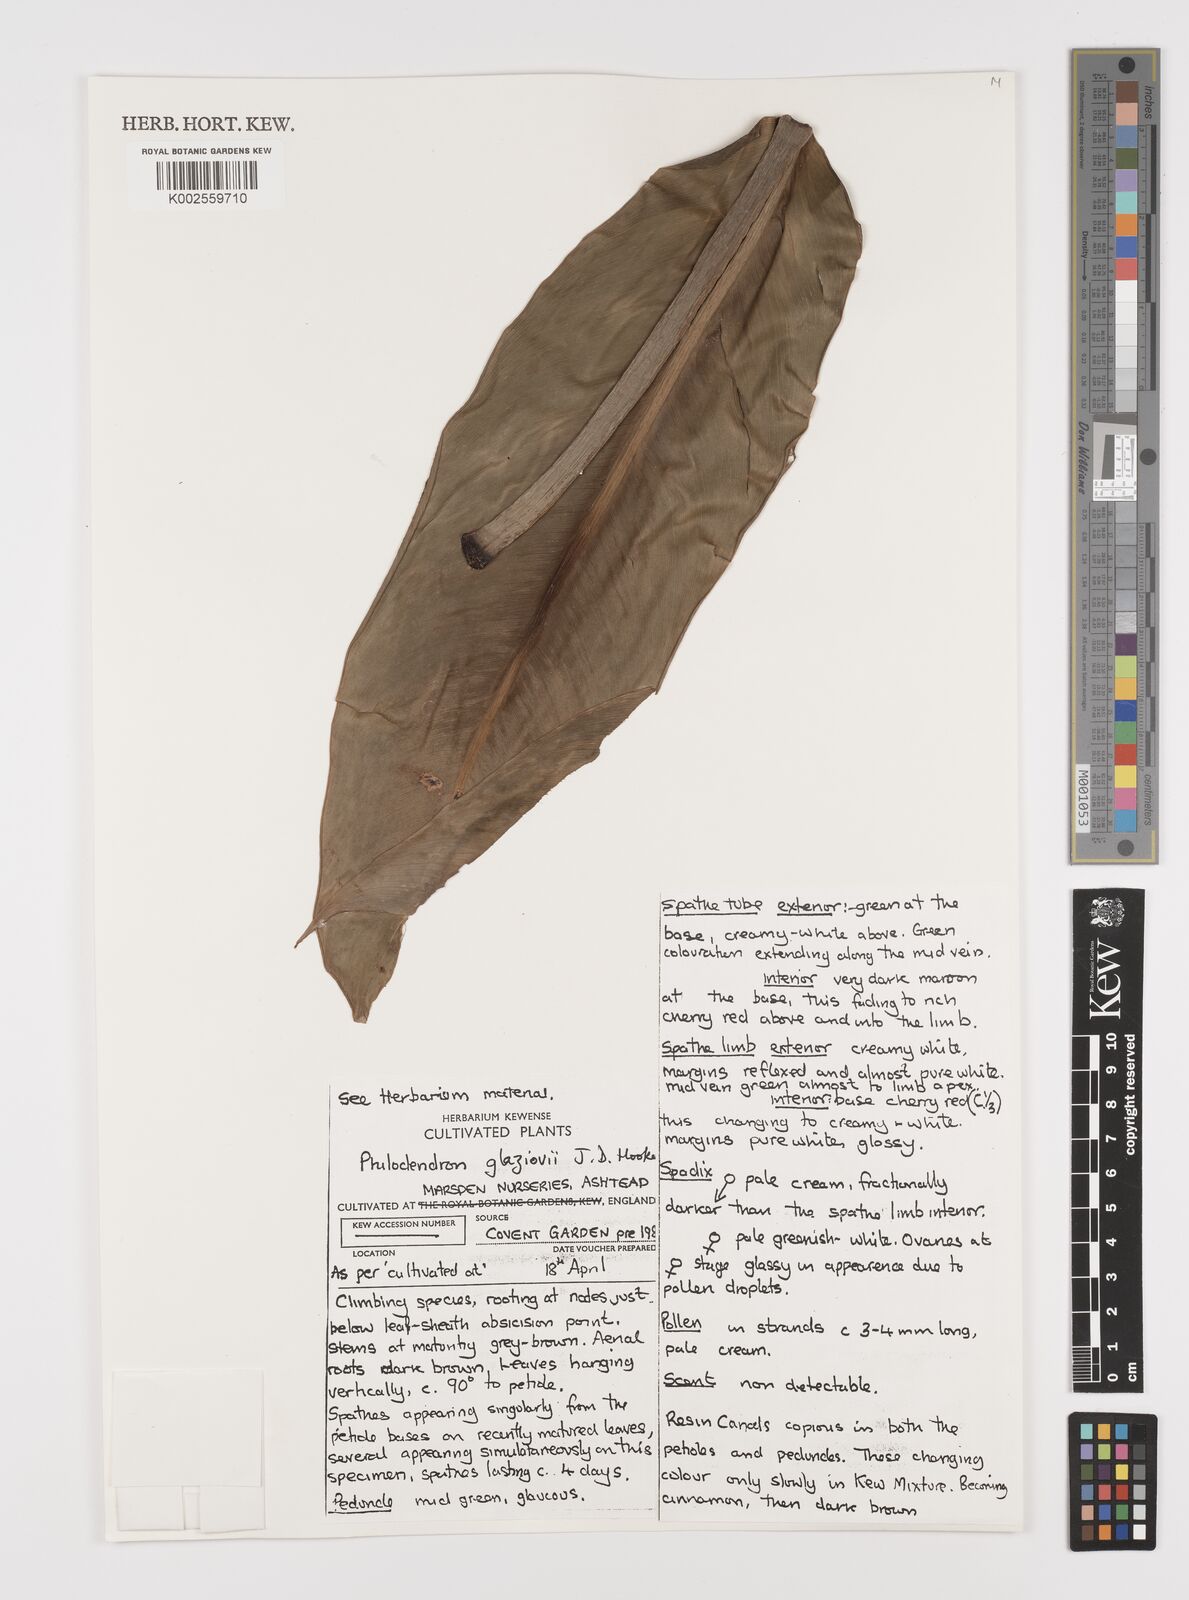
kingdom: Plantae
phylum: Tracheophyta
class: Liliopsida
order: Alismatales
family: Araceae
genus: Philodendron
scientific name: Philodendron glaziovii
